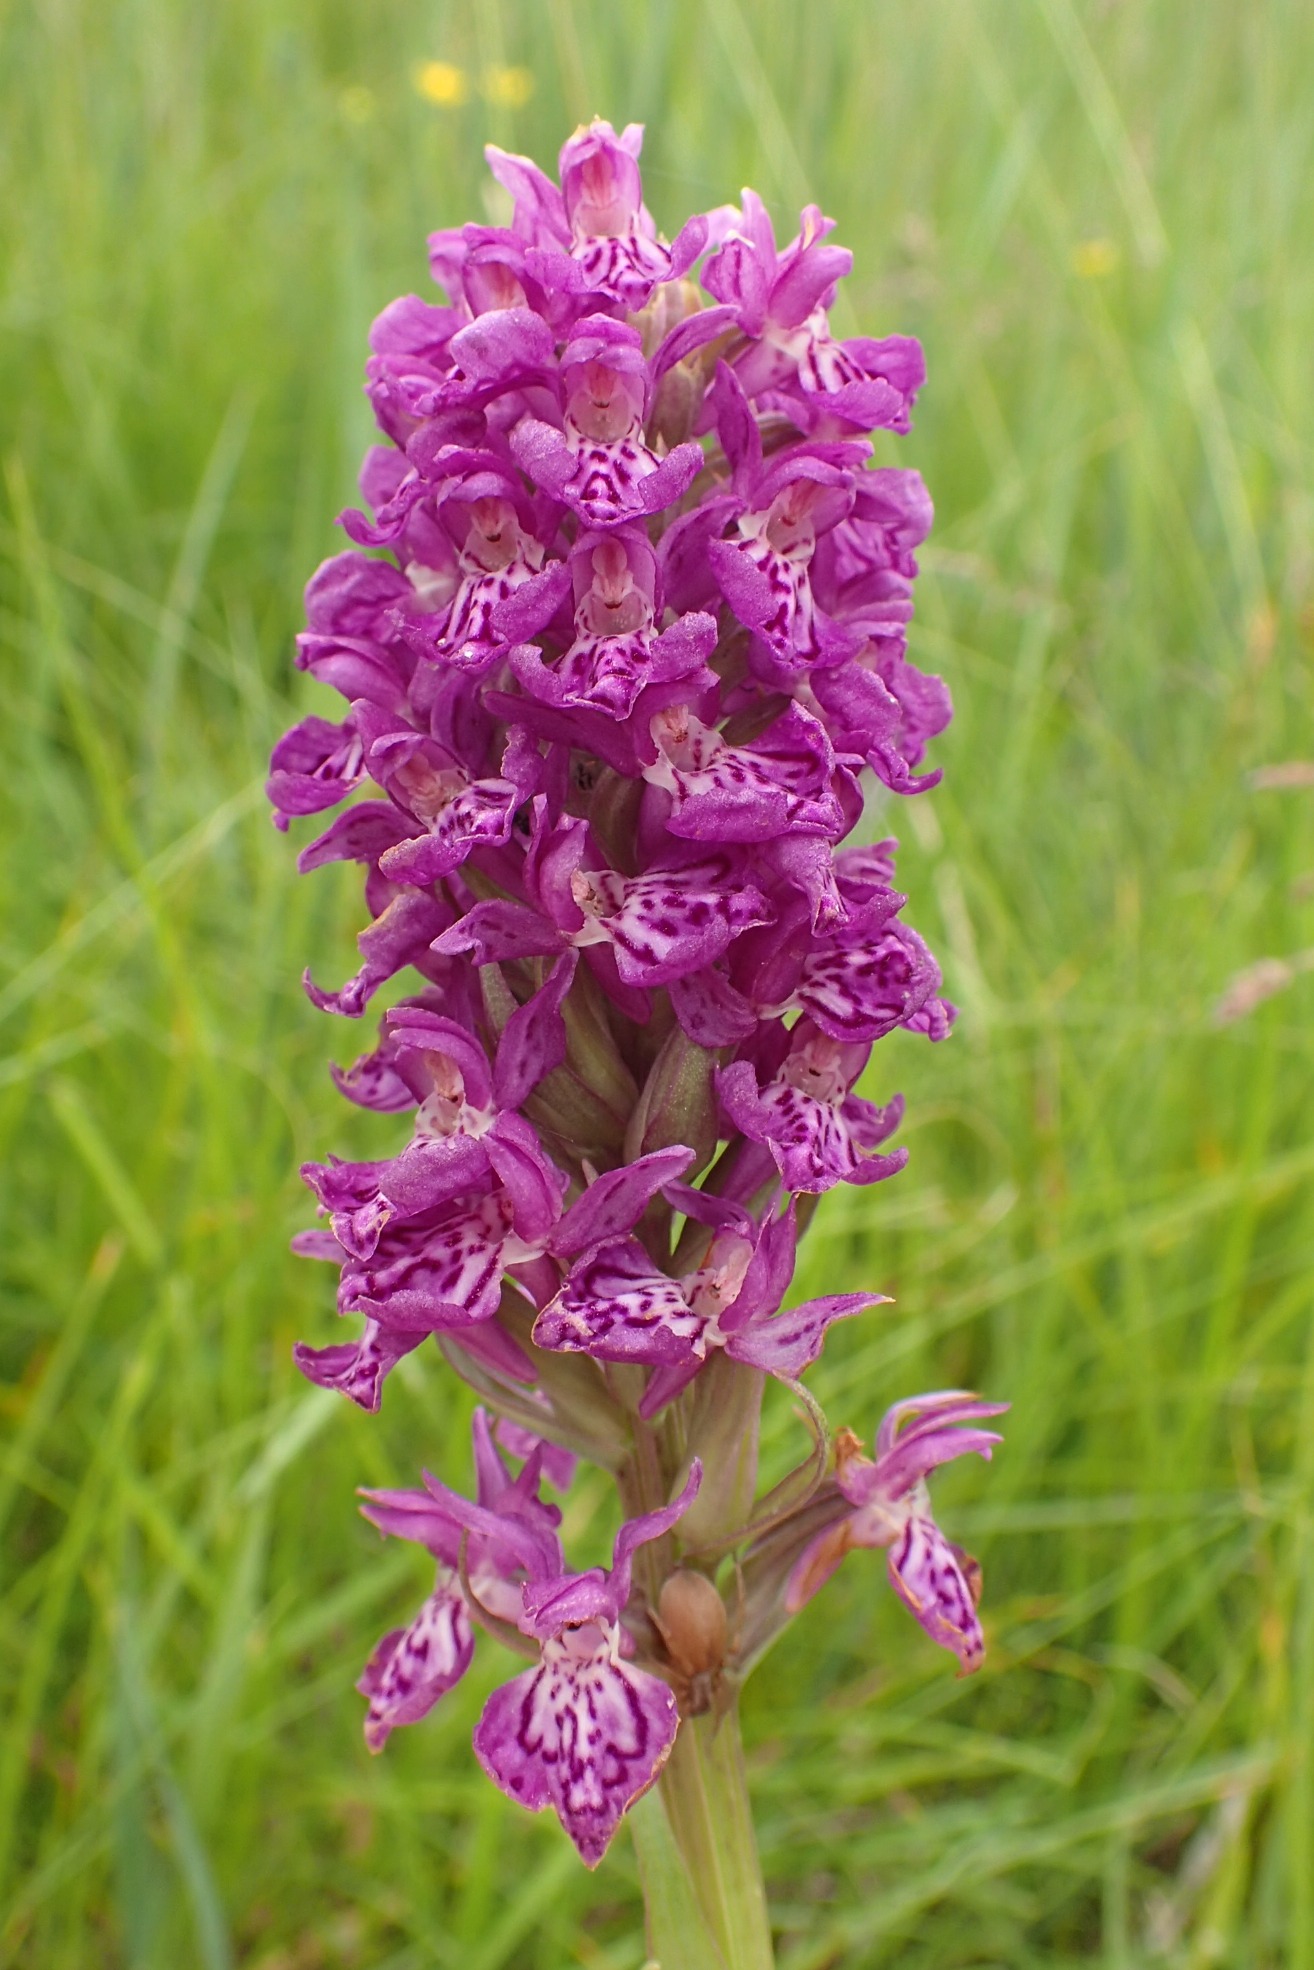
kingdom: Plantae
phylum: Tracheophyta
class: Liliopsida
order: Asparagales
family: Orchidaceae
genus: Dactylorhiza
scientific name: Dactylorhiza majalis
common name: Purpur-gøgeurt
